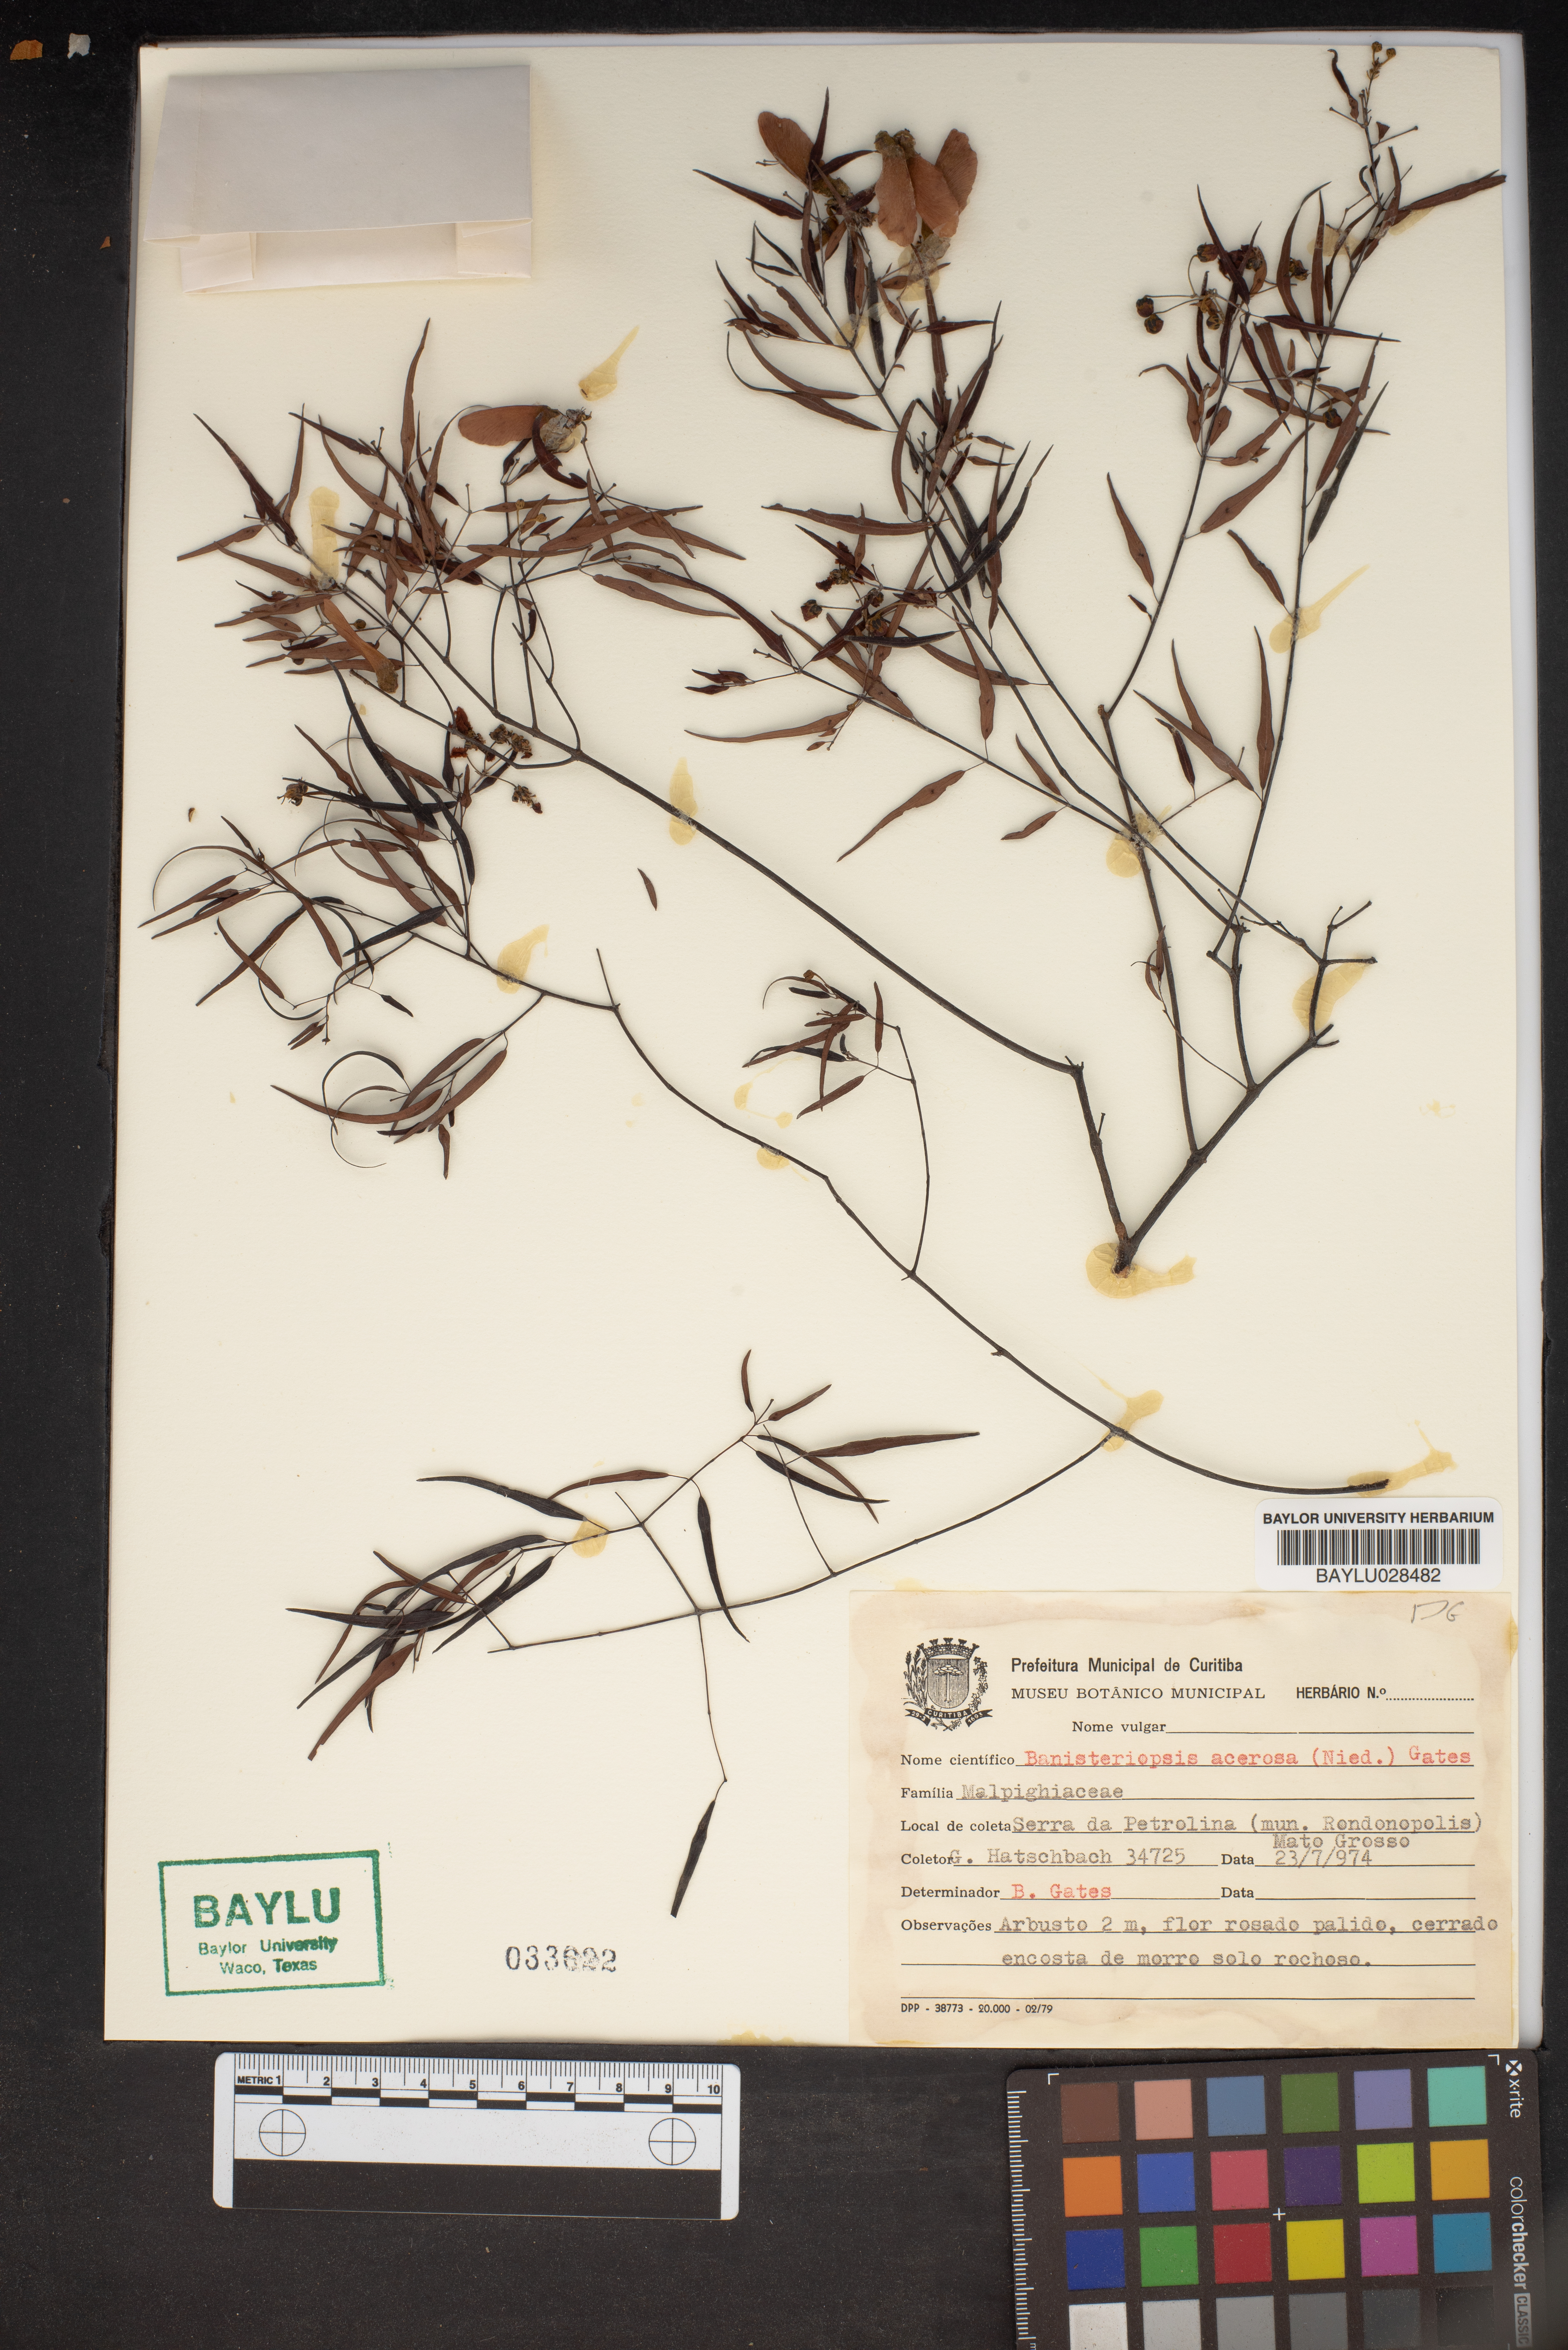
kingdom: Plantae
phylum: Tracheophyta
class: Magnoliopsida
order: Malpighiales
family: Malpighiaceae
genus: Banisteriopsis
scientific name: Banisteriopsis acerosa
